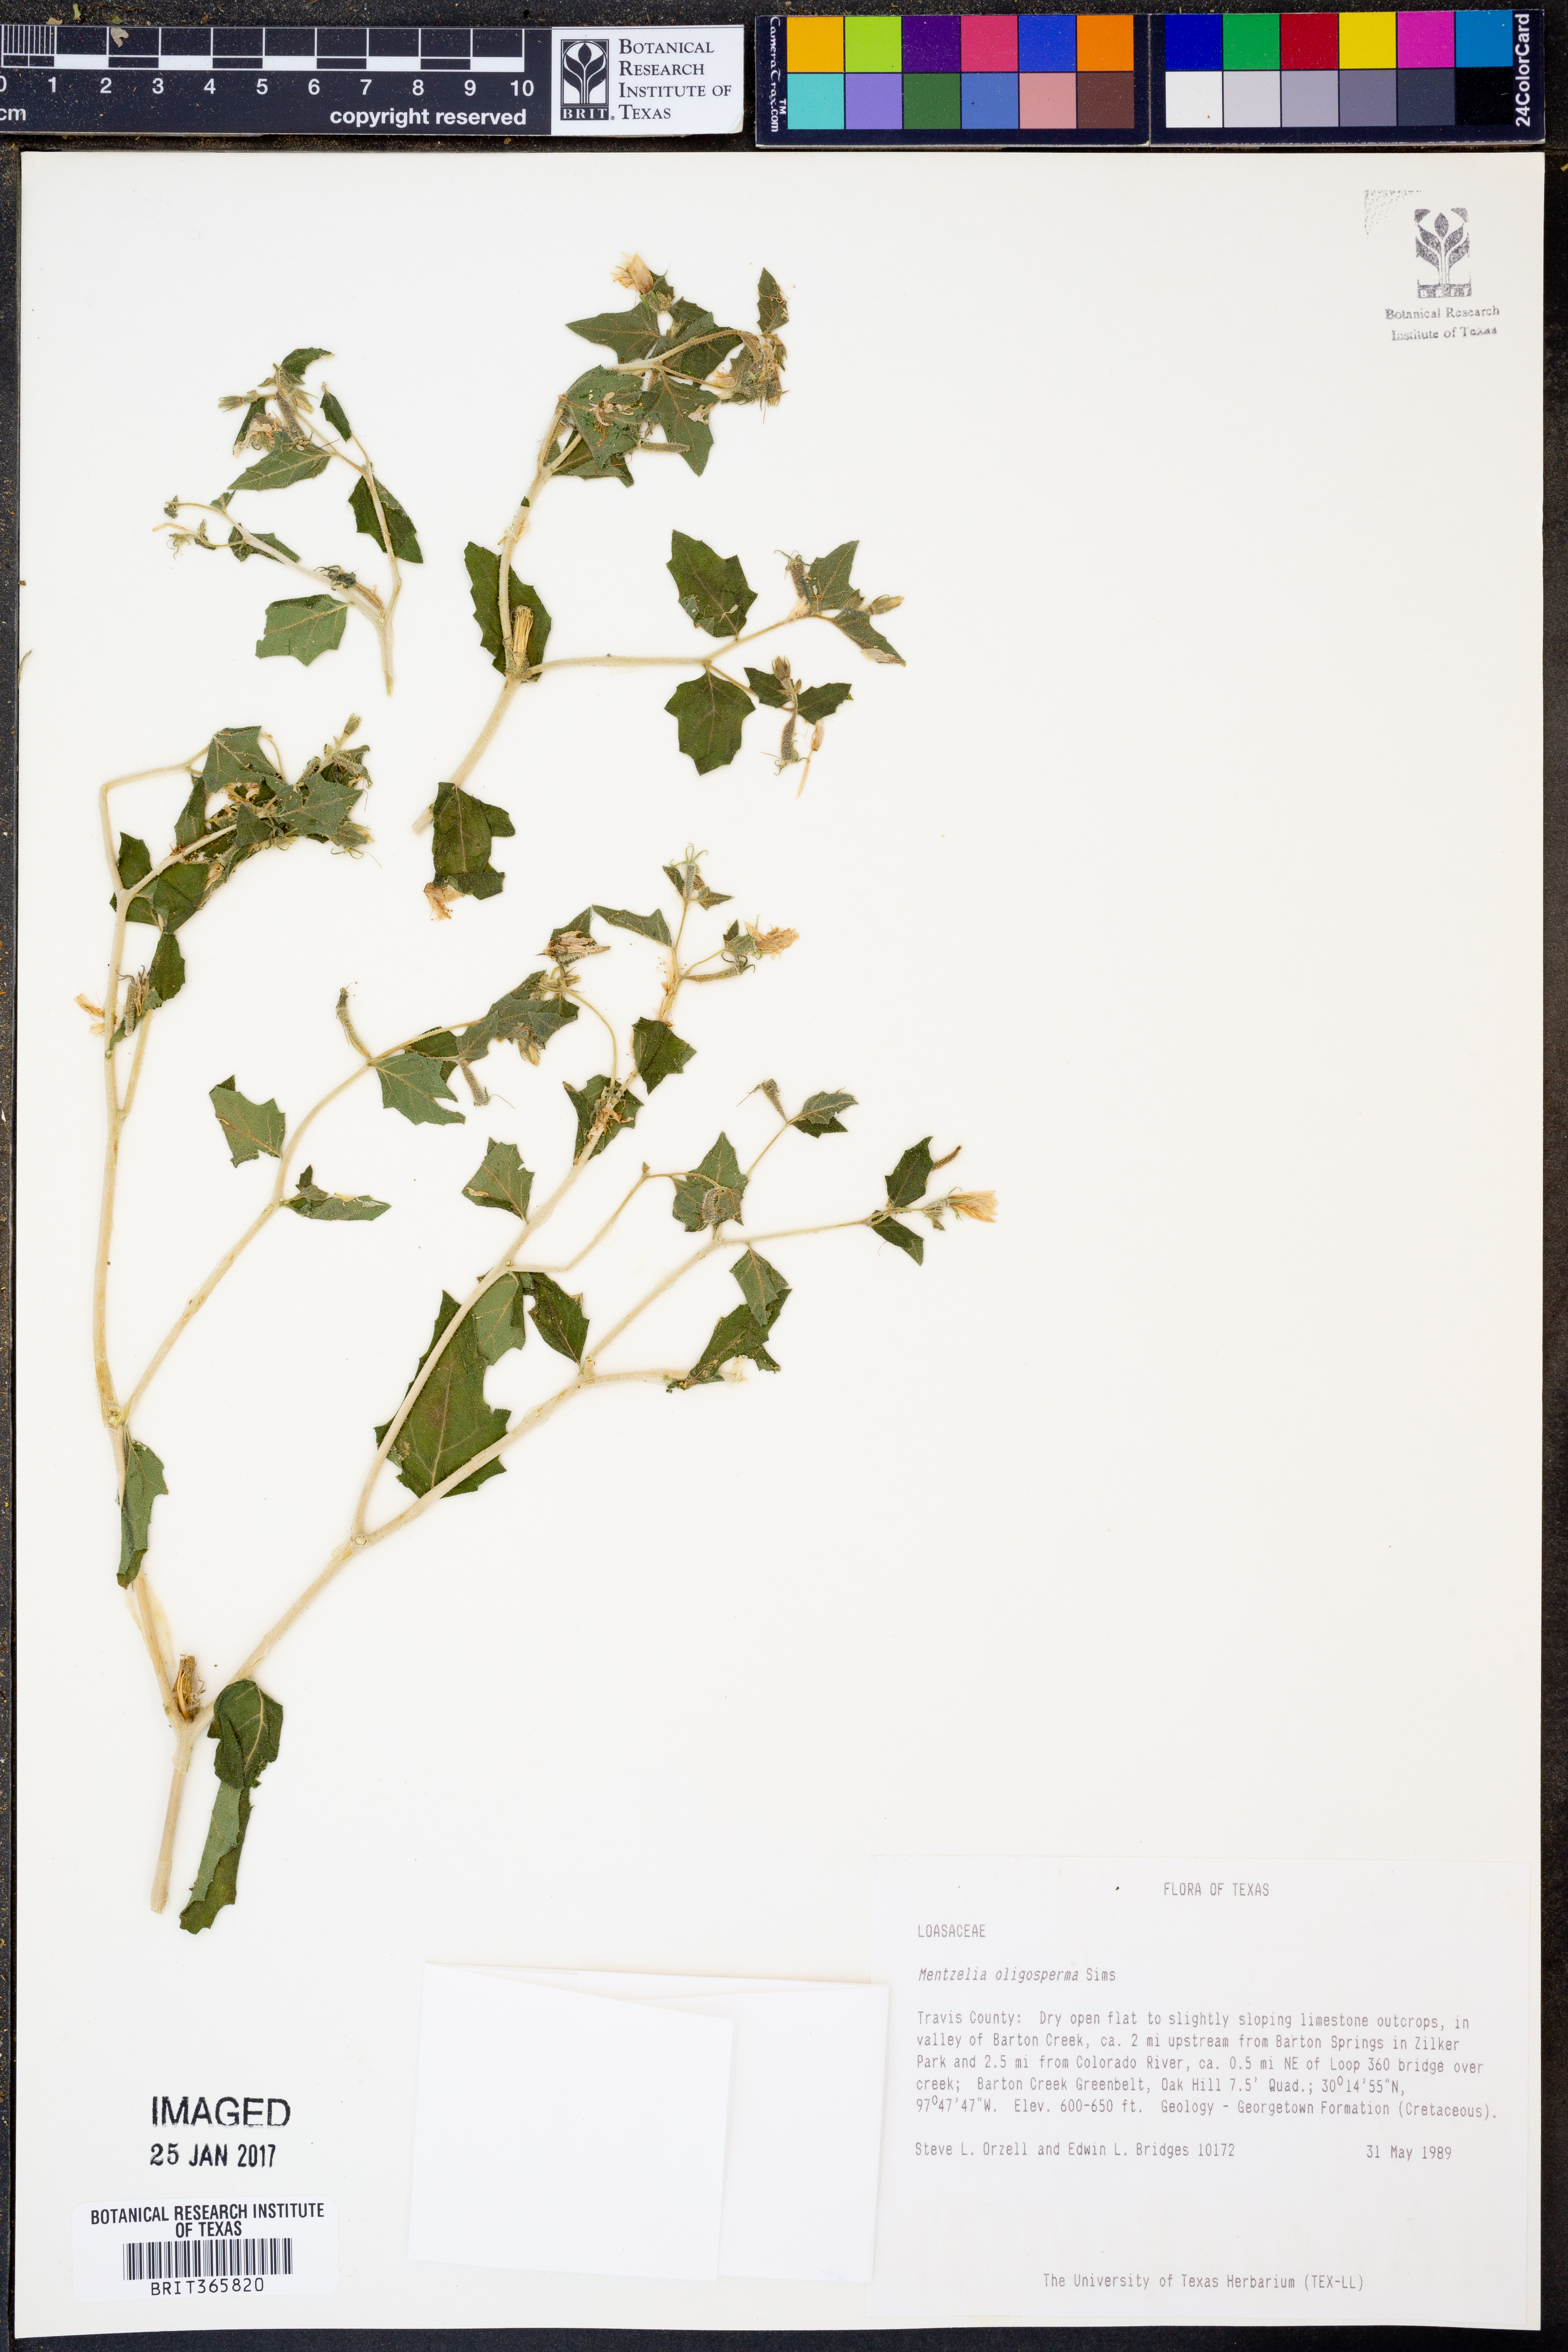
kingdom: Plantae
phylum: Tracheophyta
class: Magnoliopsida
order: Cornales
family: Loasaceae
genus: Mentzelia
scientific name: Mentzelia oligosperma
